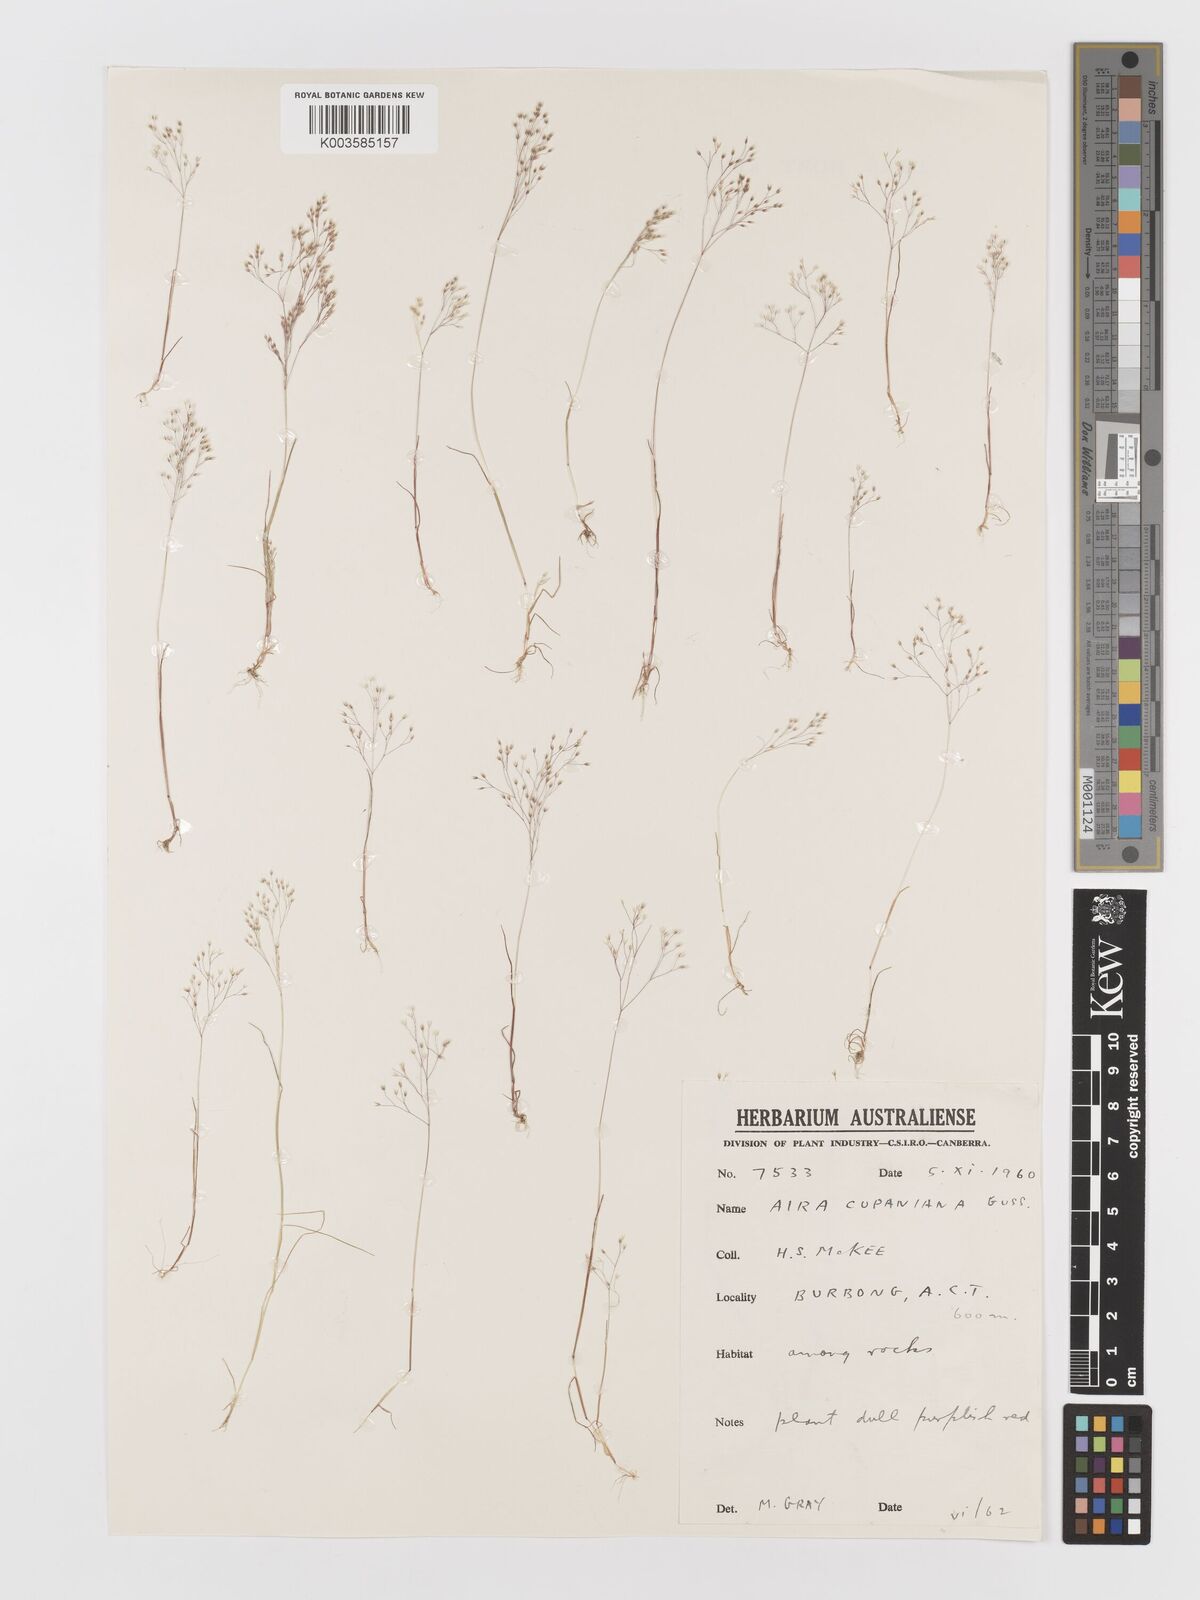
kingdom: Plantae
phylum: Tracheophyta
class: Liliopsida
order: Poales
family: Poaceae
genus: Aira
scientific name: Aira elegans
